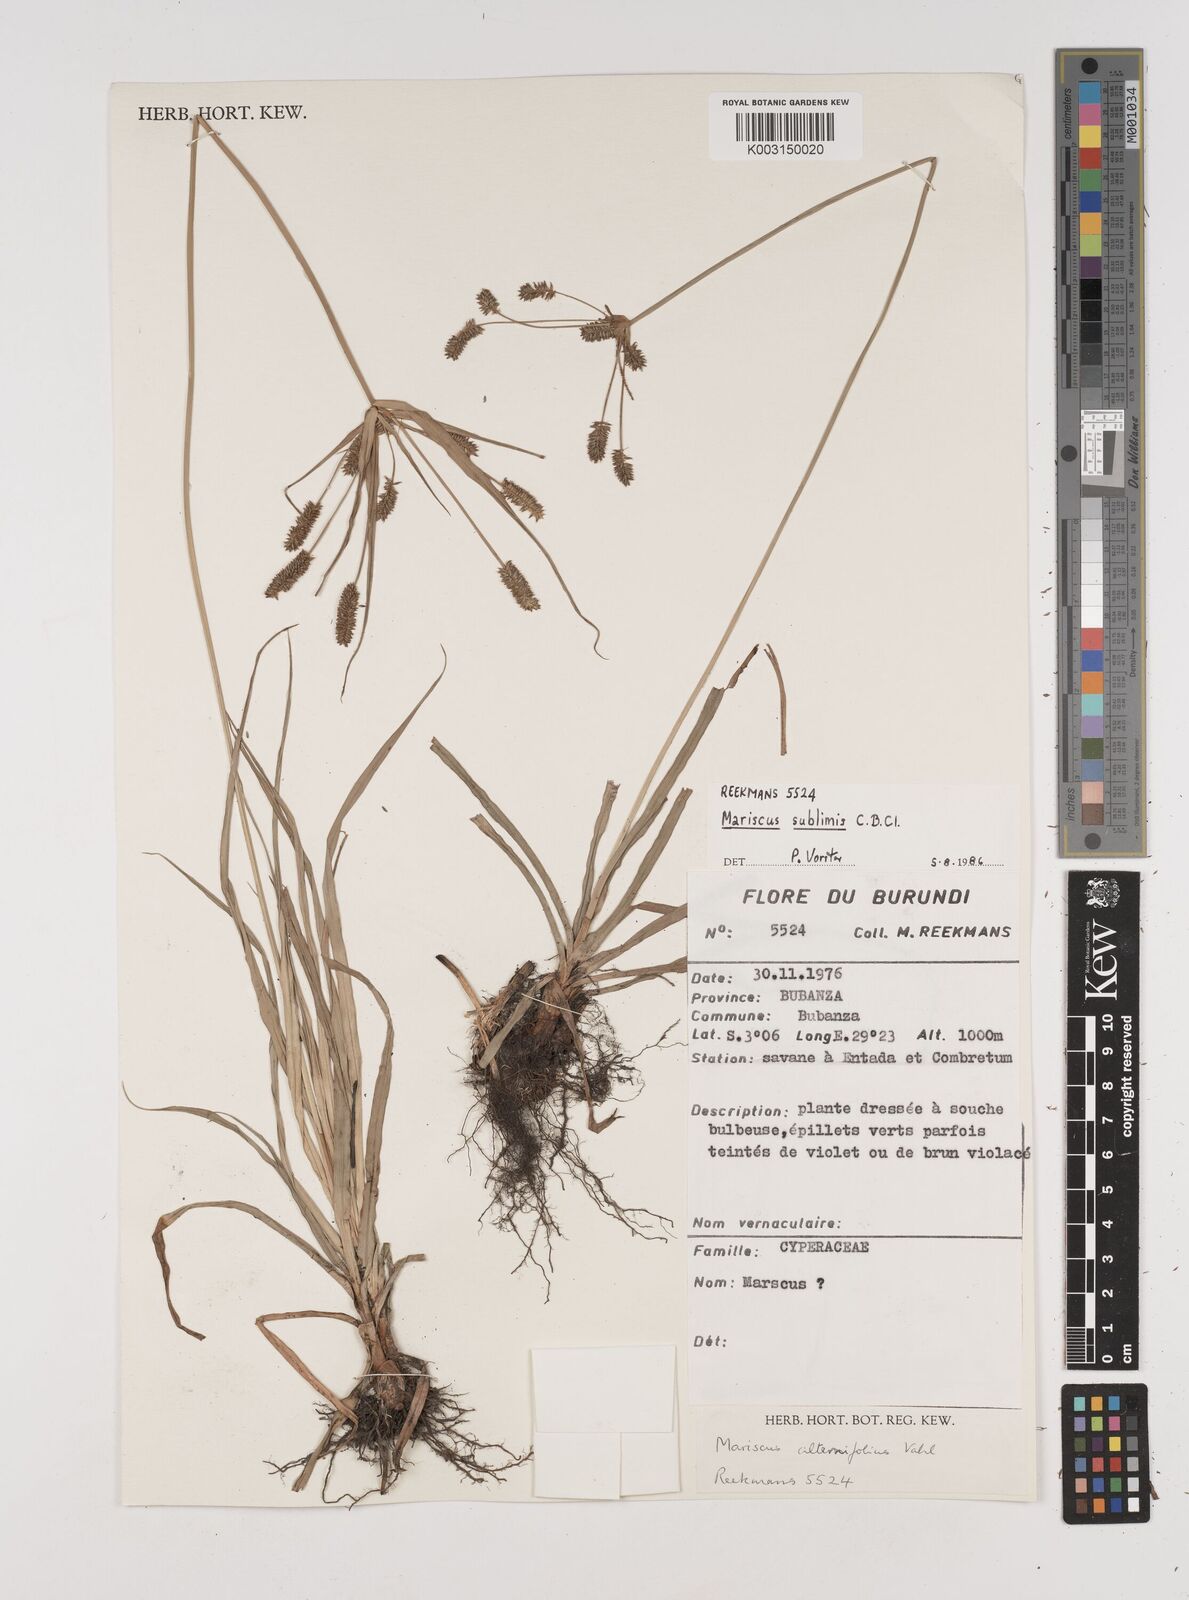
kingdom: Plantae
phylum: Tracheophyta
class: Liliopsida
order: Poales
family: Cyperaceae
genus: Cyperus
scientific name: Cyperus cyperoides
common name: Pacific island flat sedge
